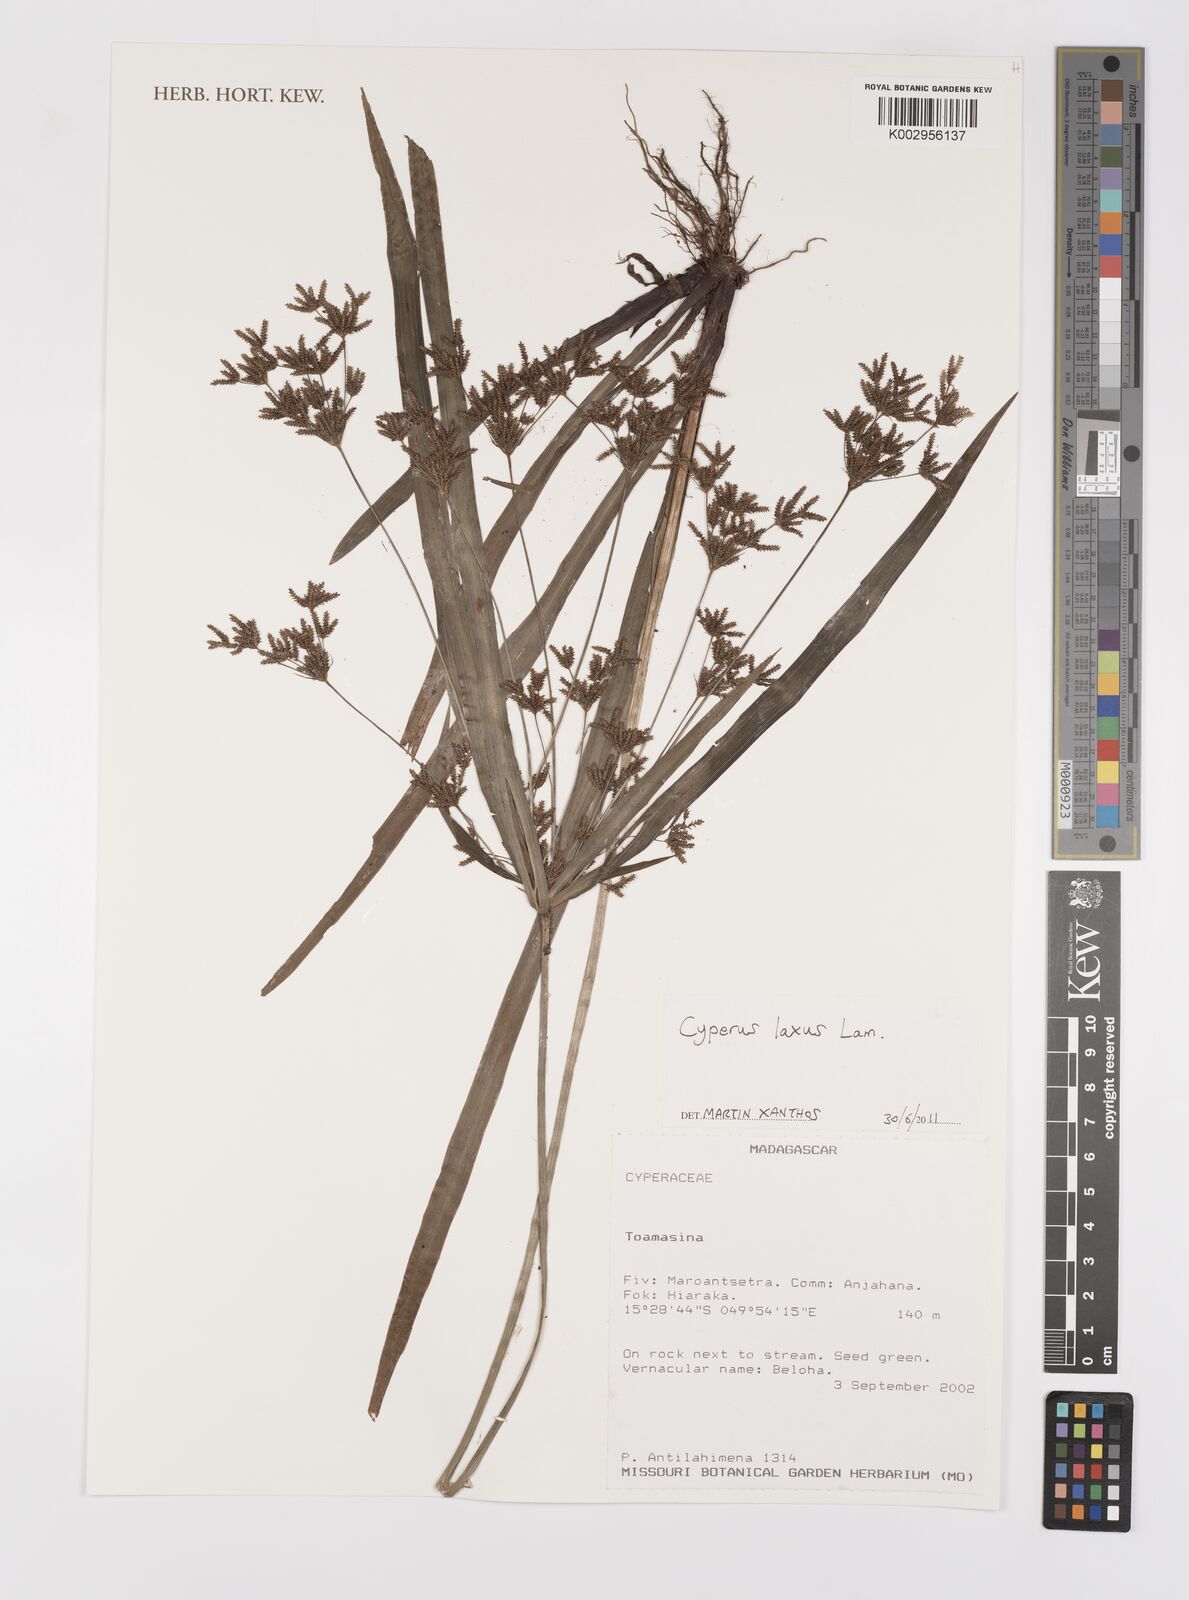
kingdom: Plantae
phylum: Tracheophyta
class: Liliopsida
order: Poales
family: Cyperaceae
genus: Cyperus
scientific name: Cyperus laxus
